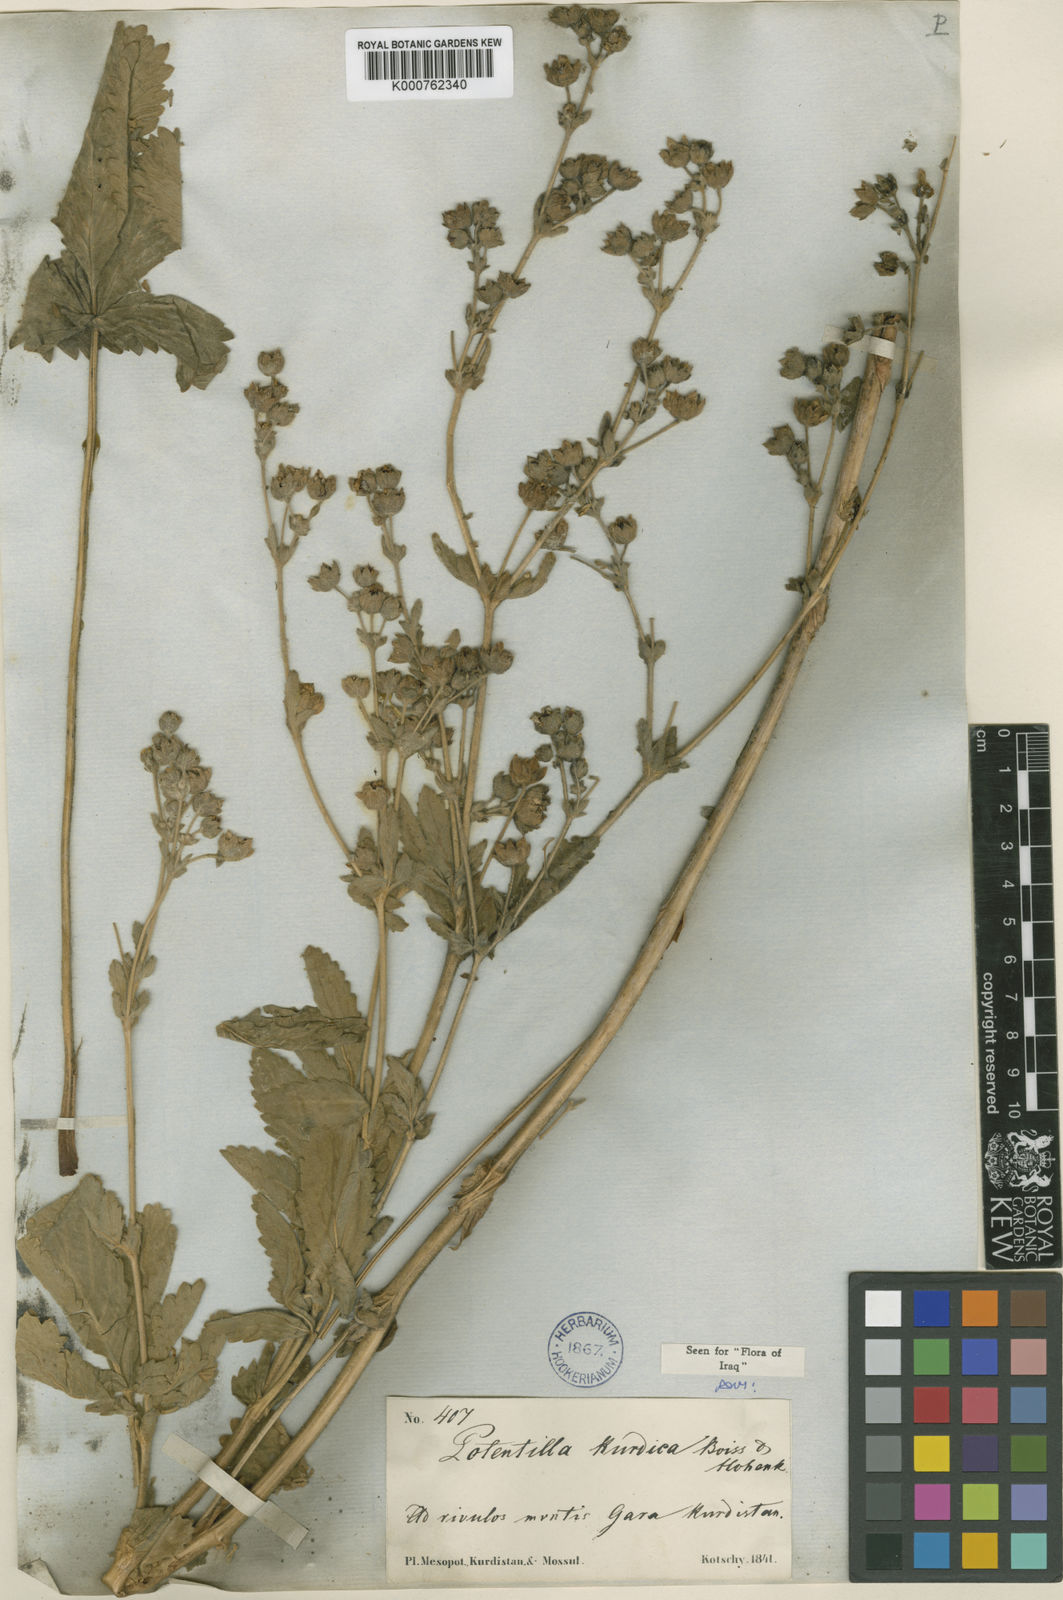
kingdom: Plantae
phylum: Tracheophyta
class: Magnoliopsida
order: Rosales
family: Rosaceae
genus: Potentilla
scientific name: Potentilla kurdica
